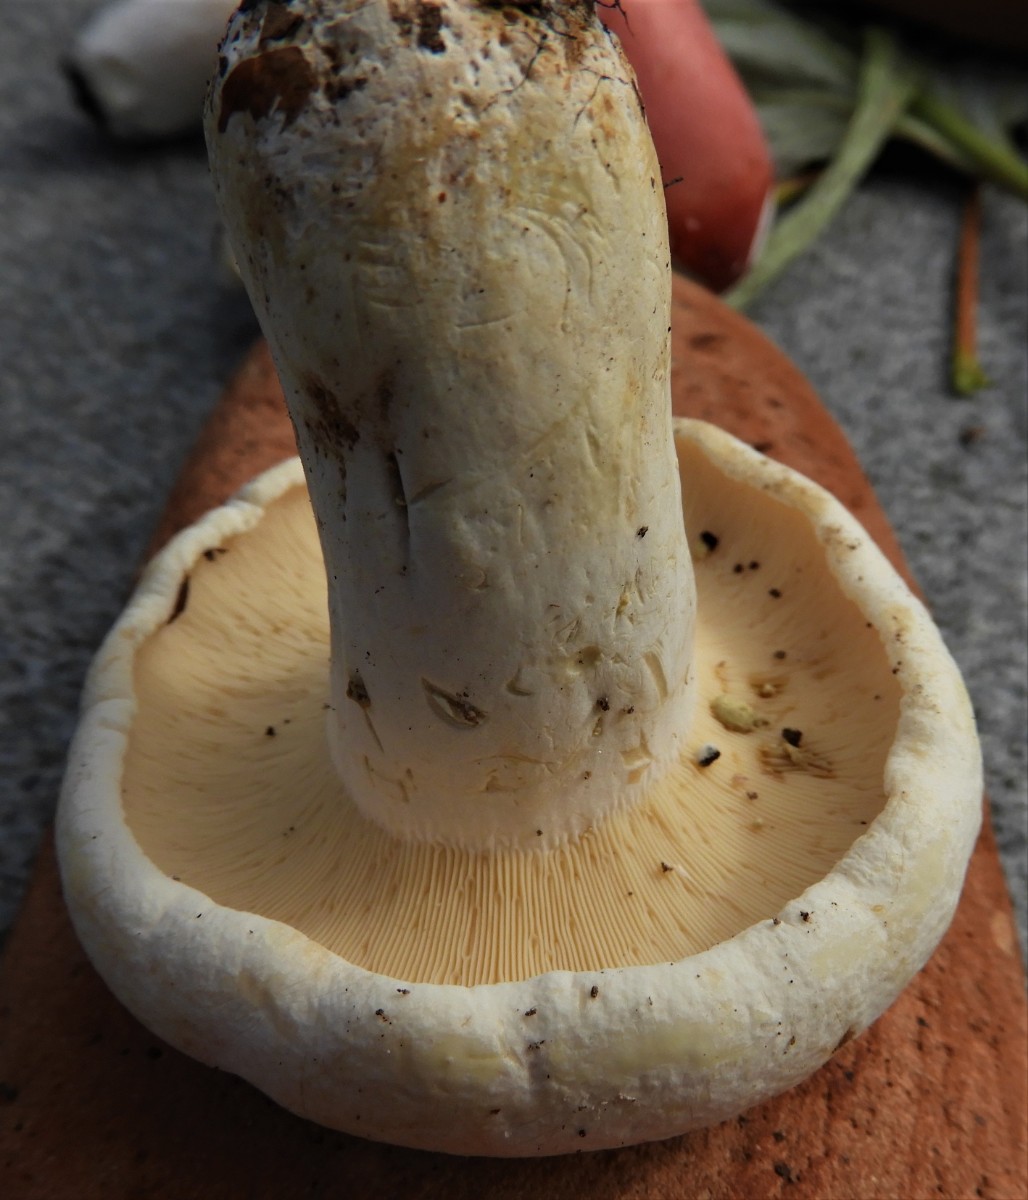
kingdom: Fungi
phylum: Basidiomycota
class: Agaricomycetes
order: Russulales
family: Russulaceae
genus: Lactifluus
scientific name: Lactifluus
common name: mælkehat
